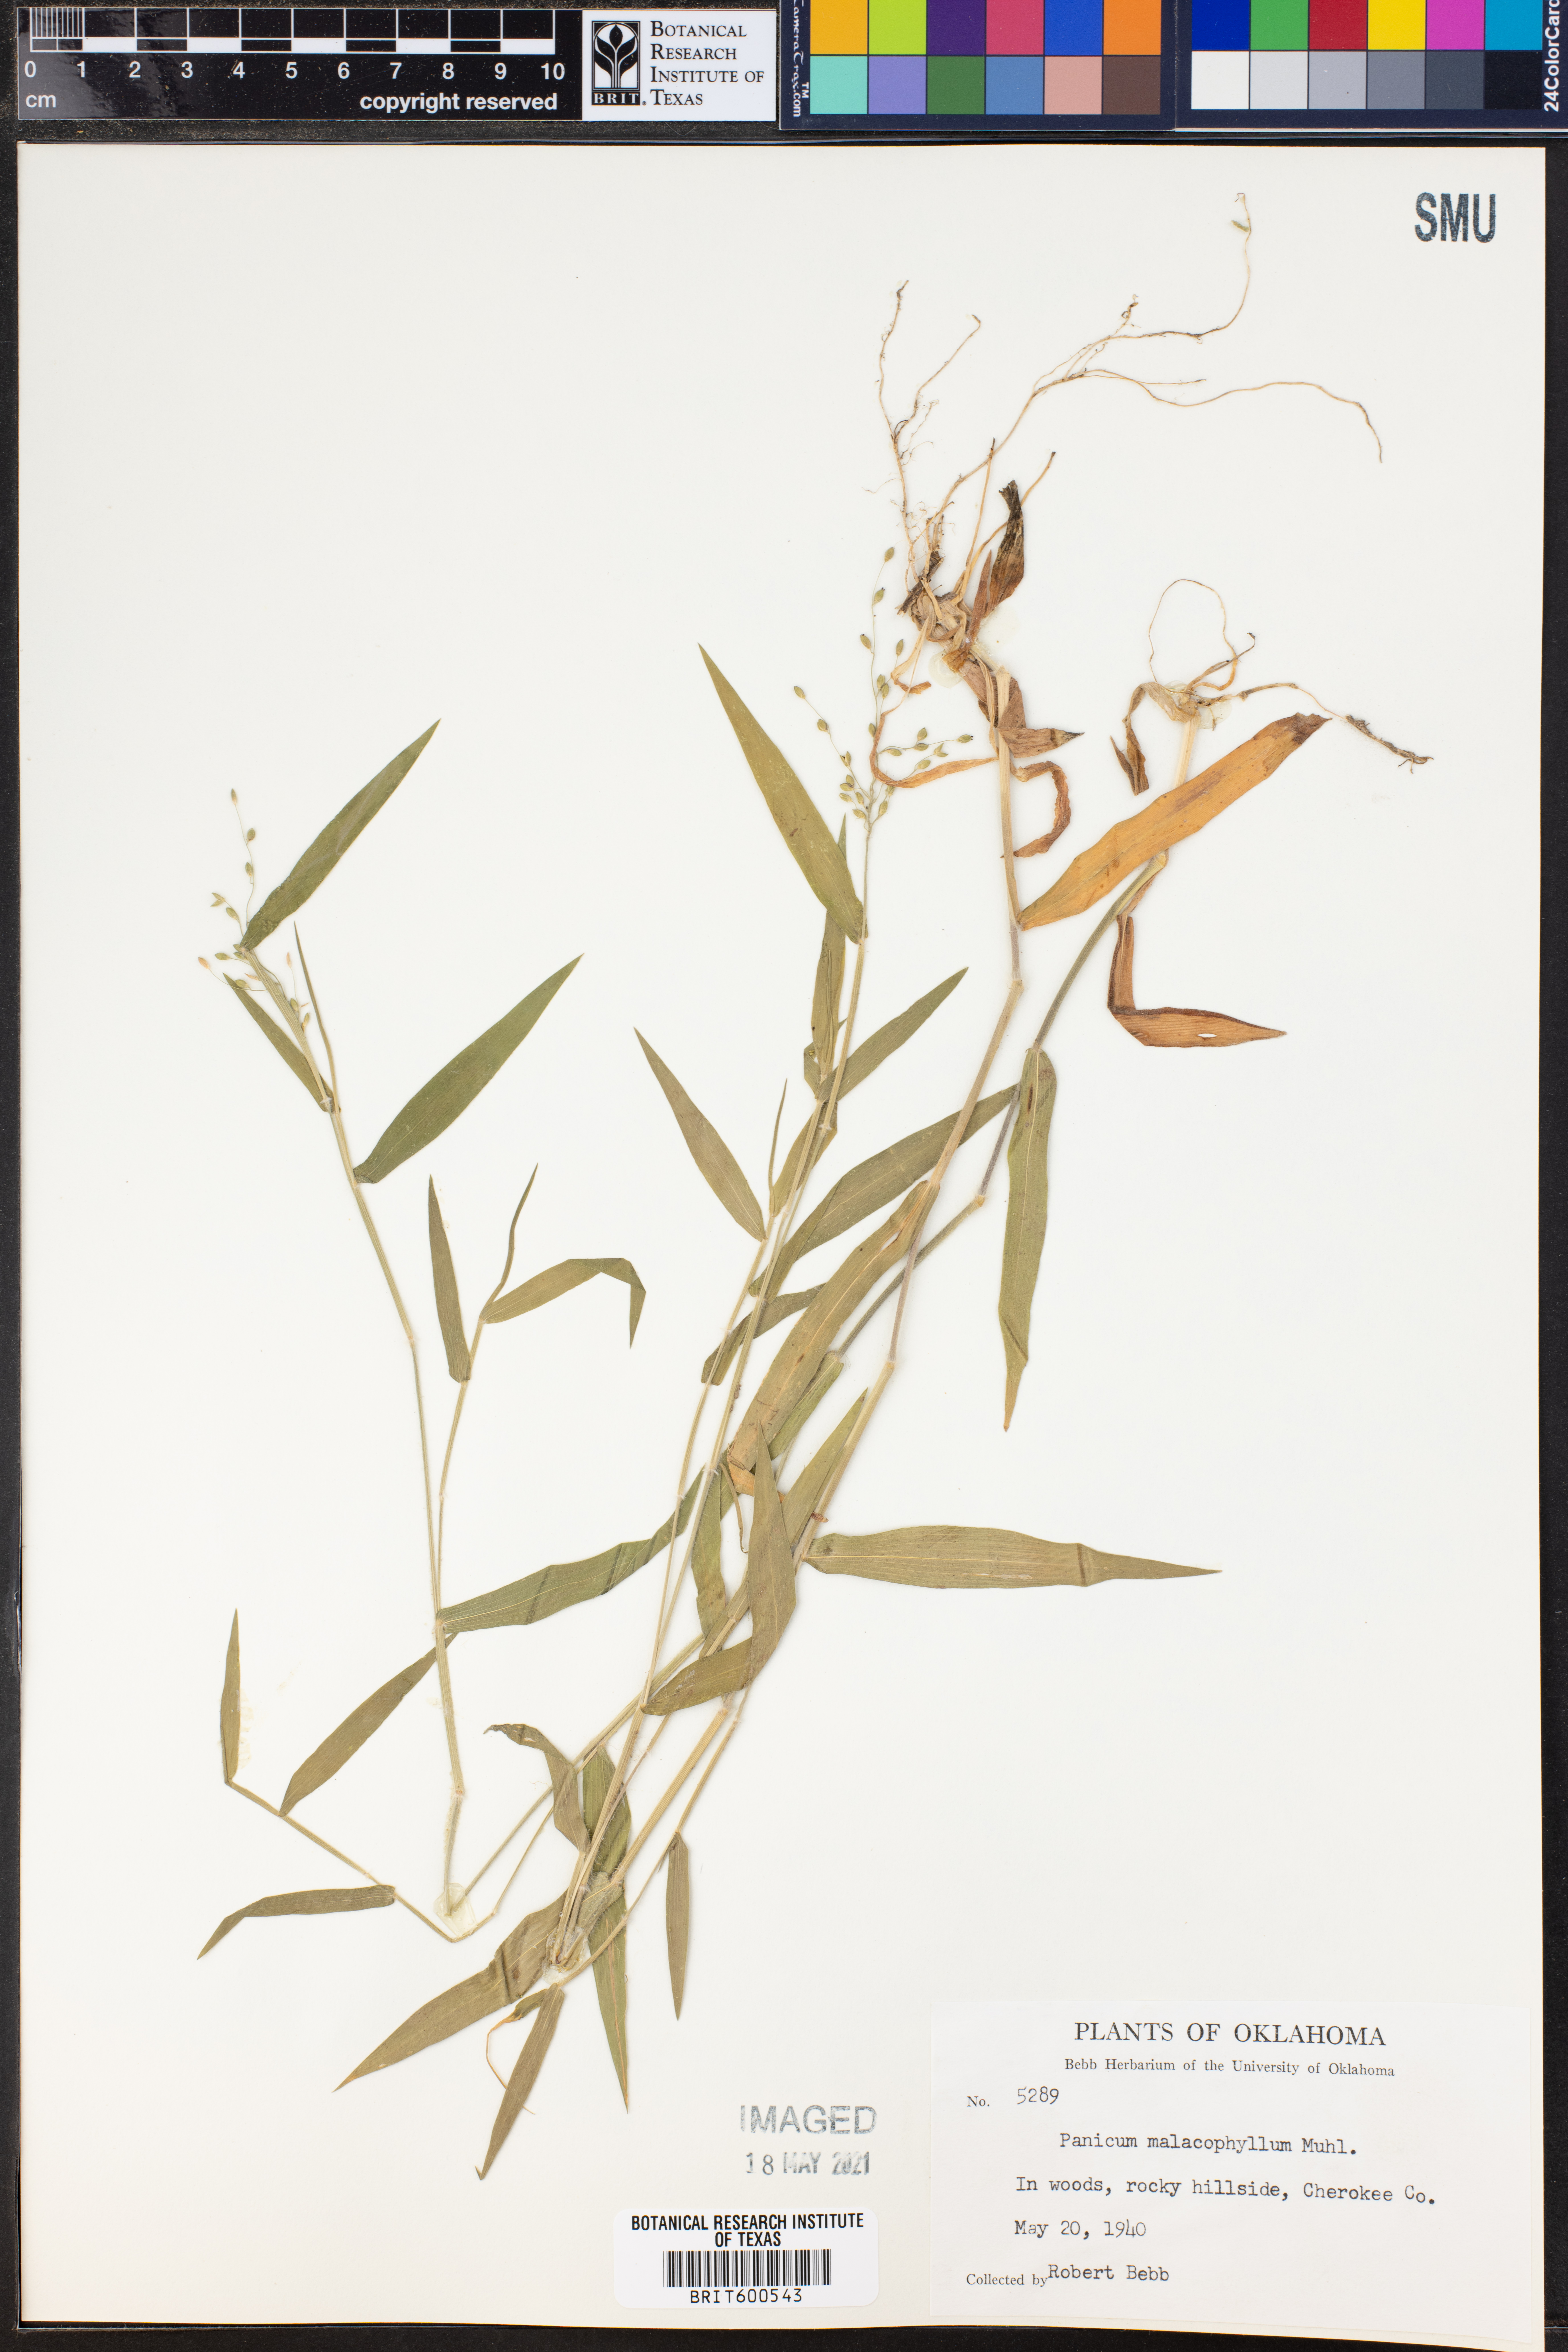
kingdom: Plantae
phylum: Tracheophyta
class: Liliopsida
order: Poales
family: Poaceae
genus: Dichanthelium
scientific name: Dichanthelium malacophyllum
